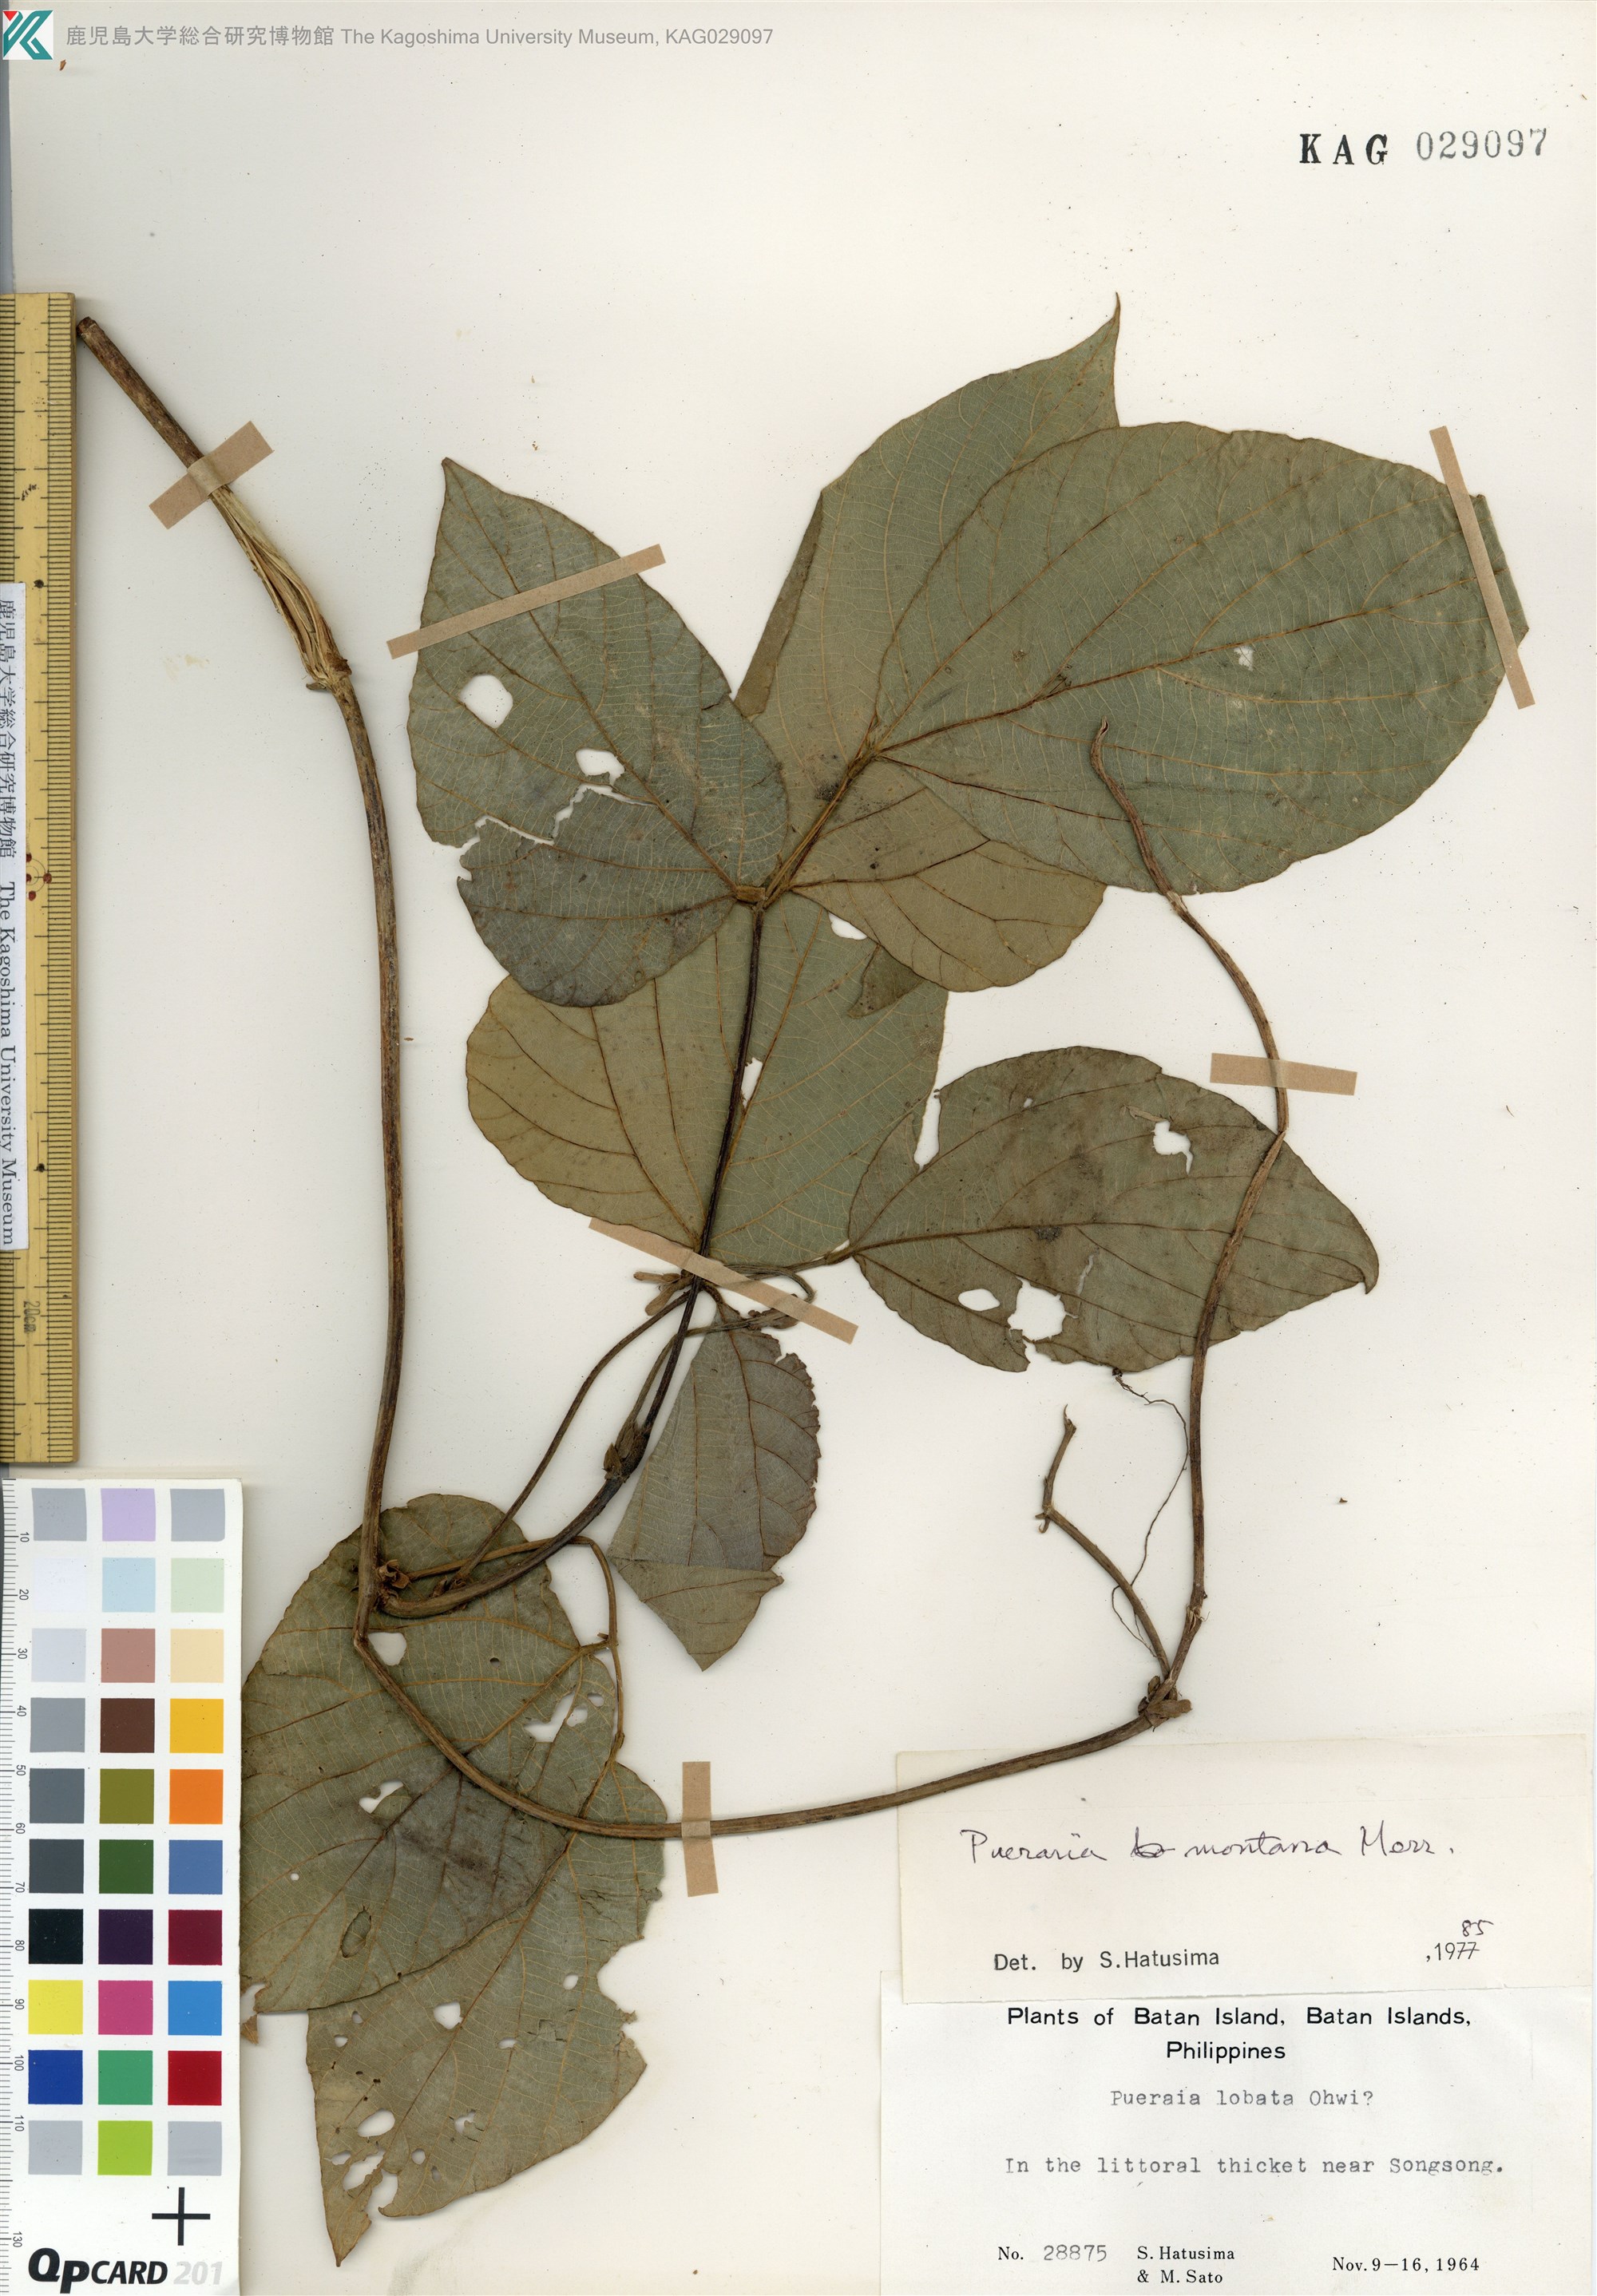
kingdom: Plantae
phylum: Tracheophyta
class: Magnoliopsida
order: Fabales
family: Fabaceae
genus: Pueraria
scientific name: Pueraria montana
